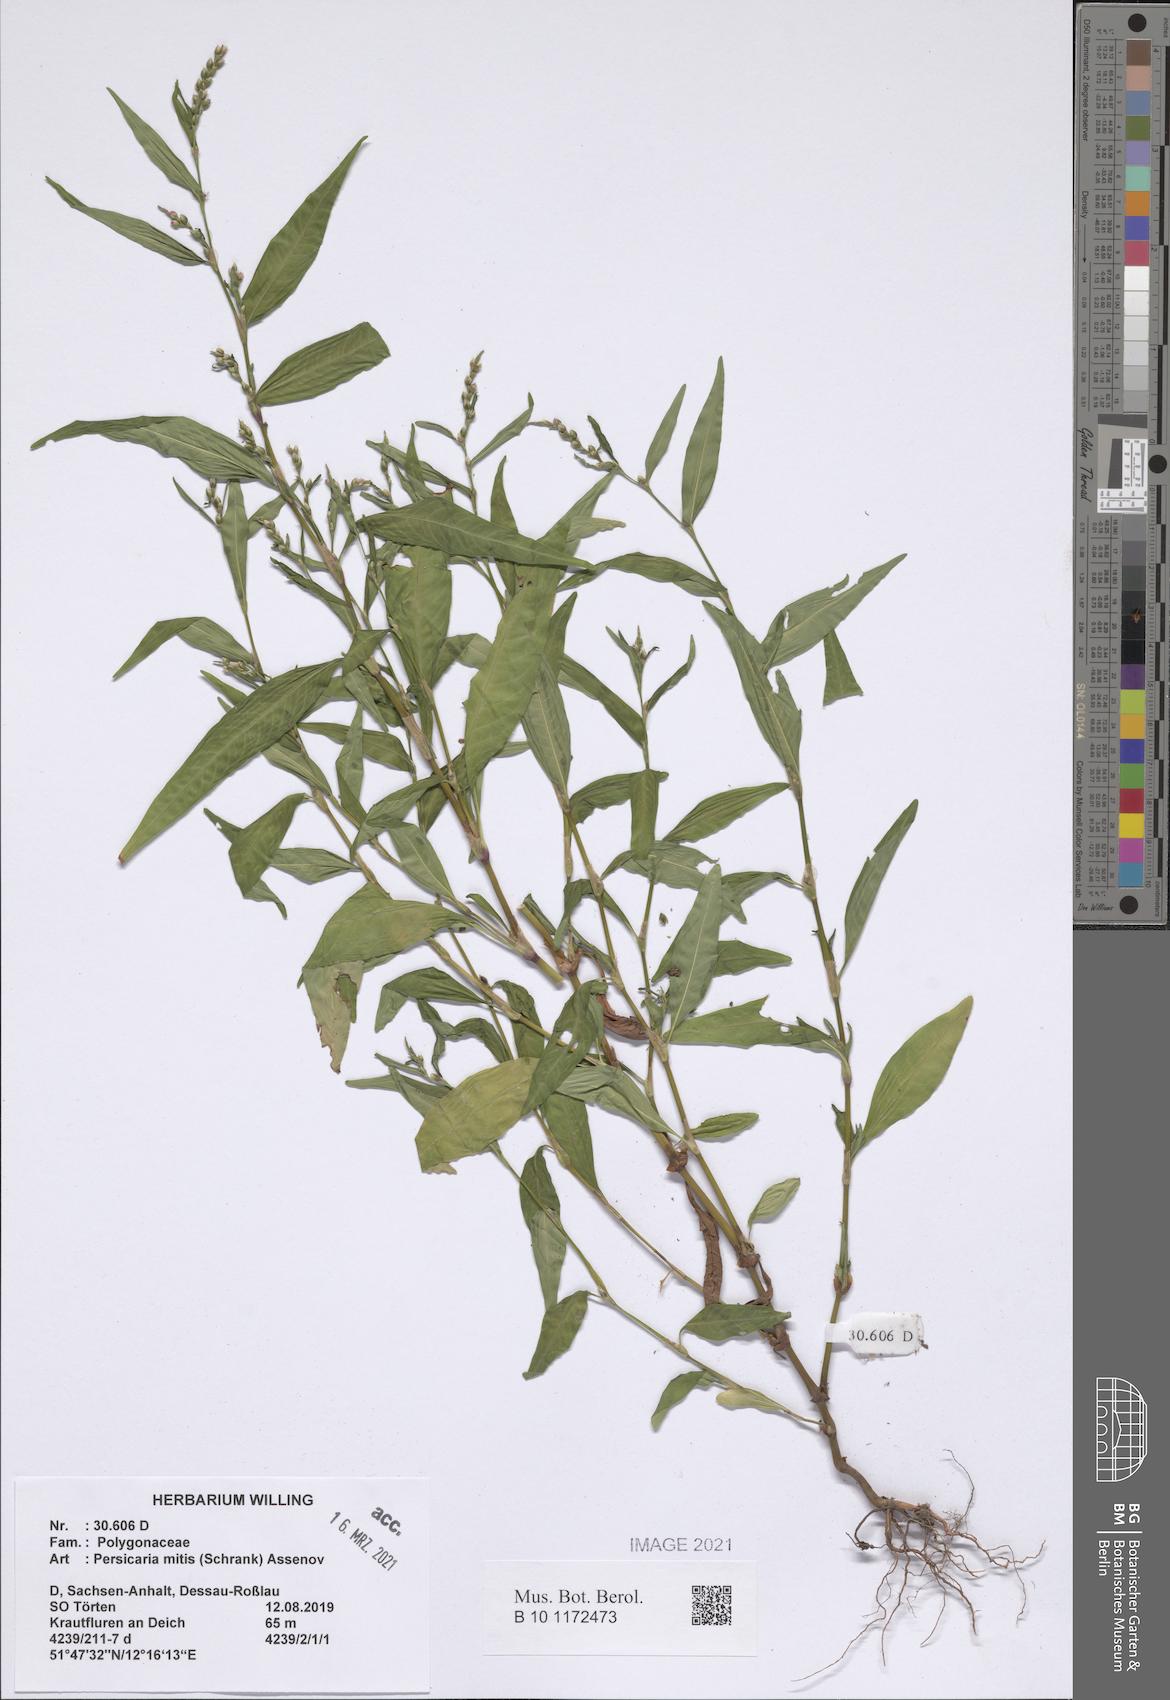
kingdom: Plantae
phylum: Tracheophyta
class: Magnoliopsida
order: Caryophyllales
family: Polygonaceae
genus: Persicaria
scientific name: Persicaria mitis
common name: Tasteless water-pepper
